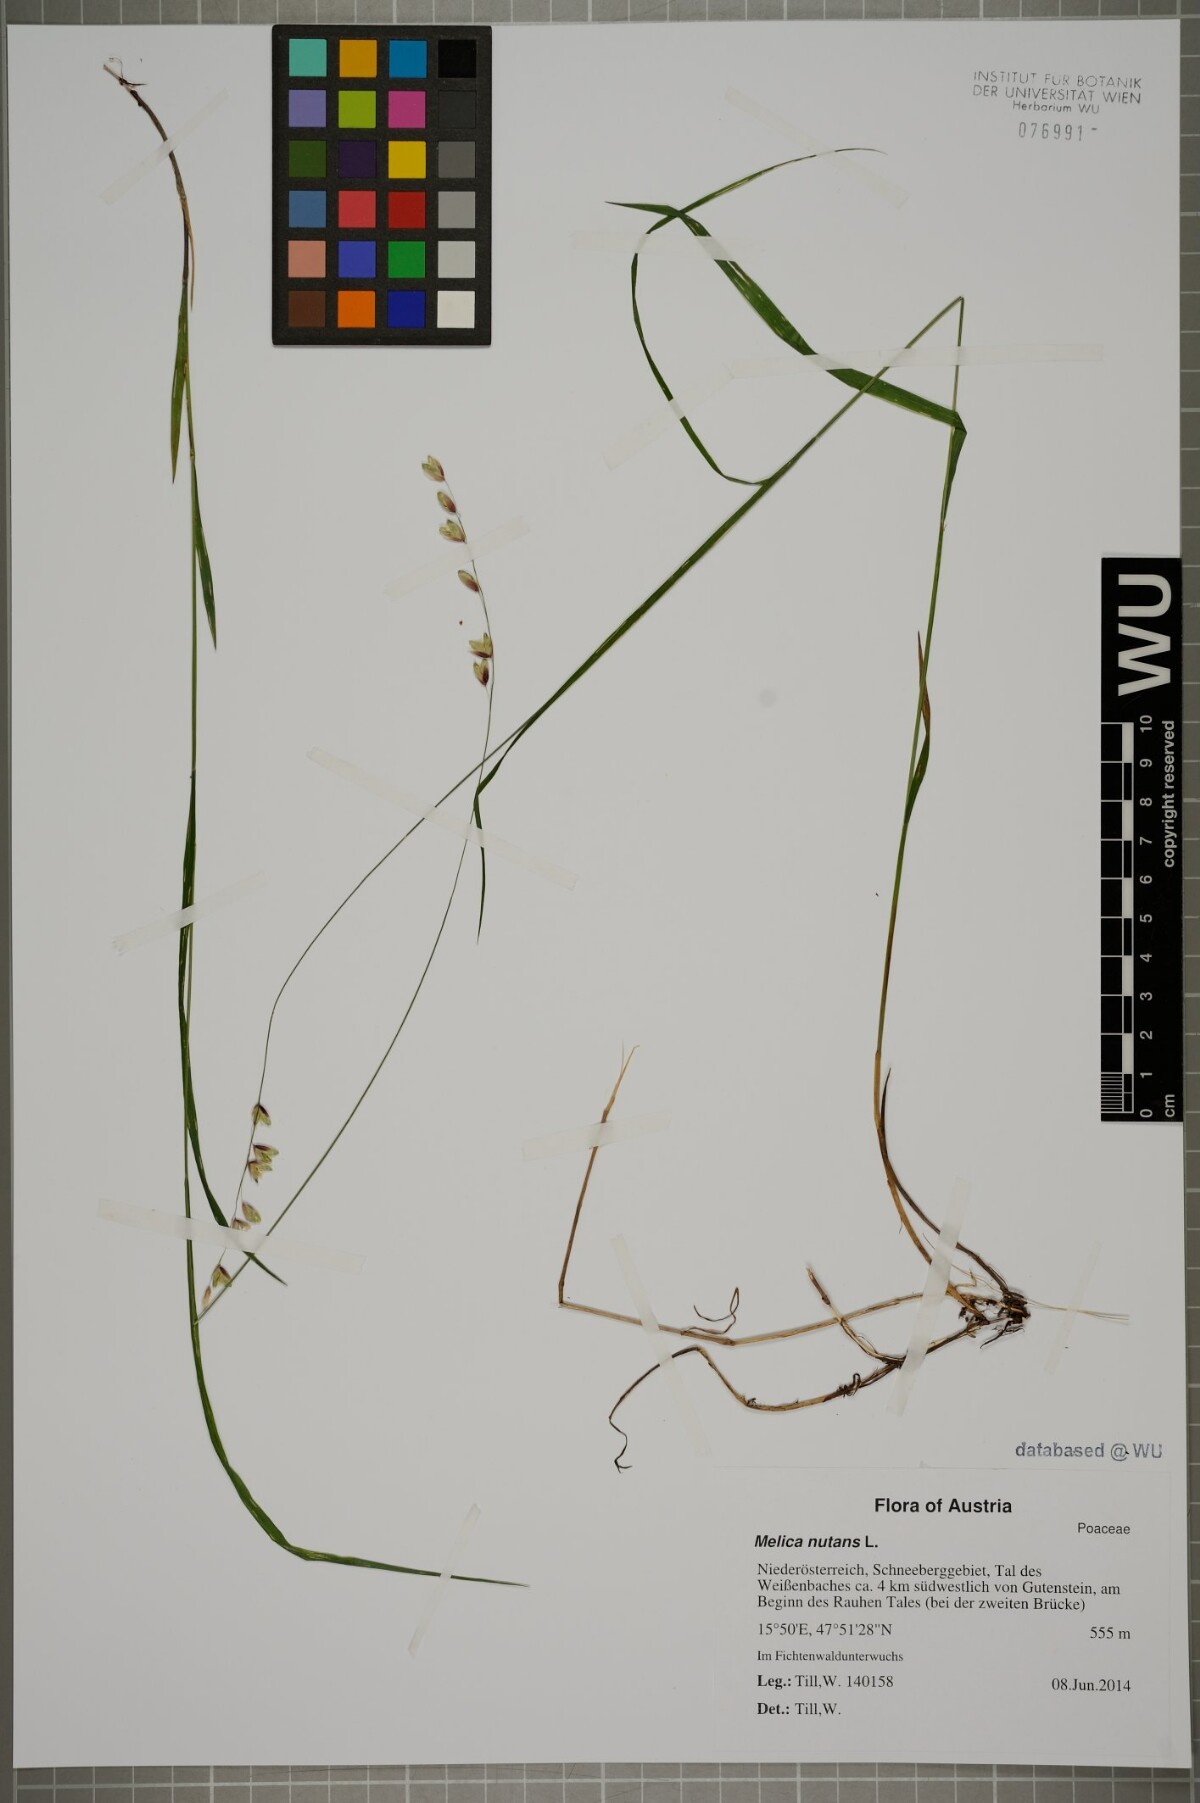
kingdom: Plantae
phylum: Tracheophyta
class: Liliopsida
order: Poales
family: Poaceae
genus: Melica
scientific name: Melica nutans
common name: Mountain melick
